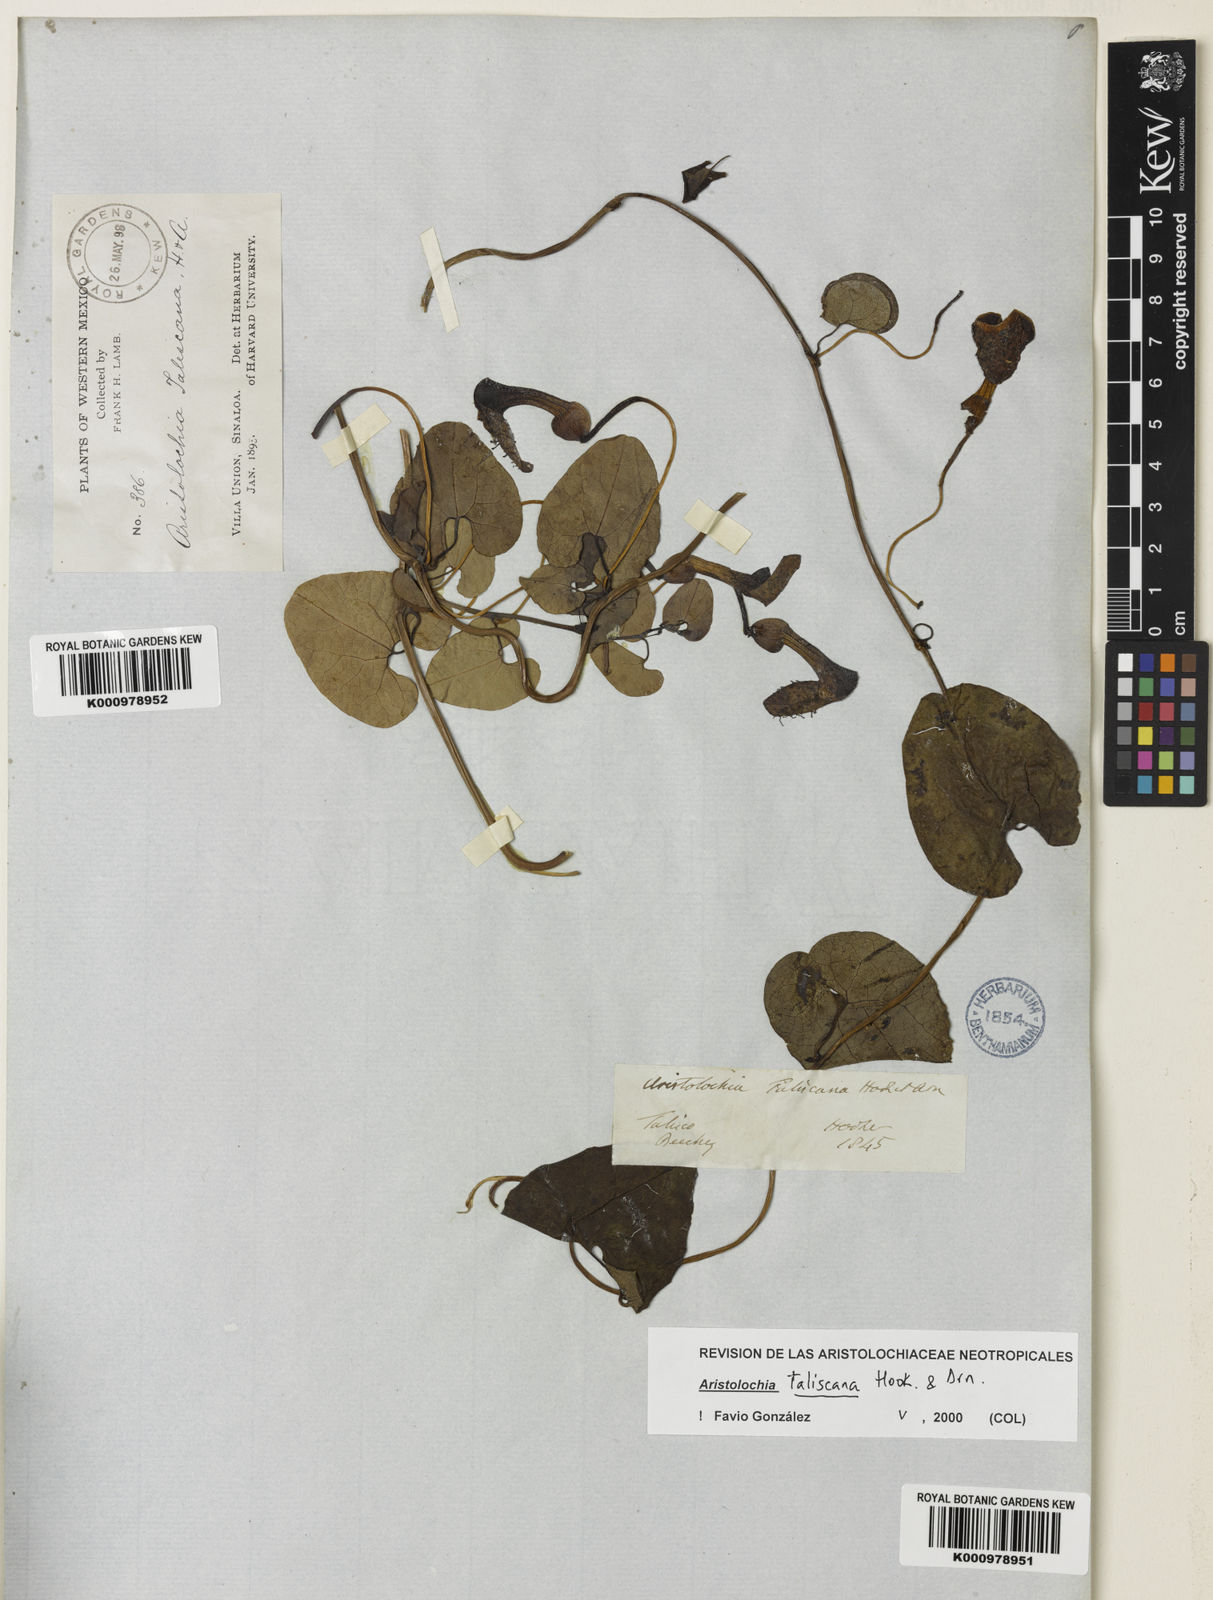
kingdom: Plantae
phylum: Tracheophyta
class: Magnoliopsida
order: Piperales
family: Aristolochiaceae
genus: Aristolochia
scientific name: Aristolochia taliscana
